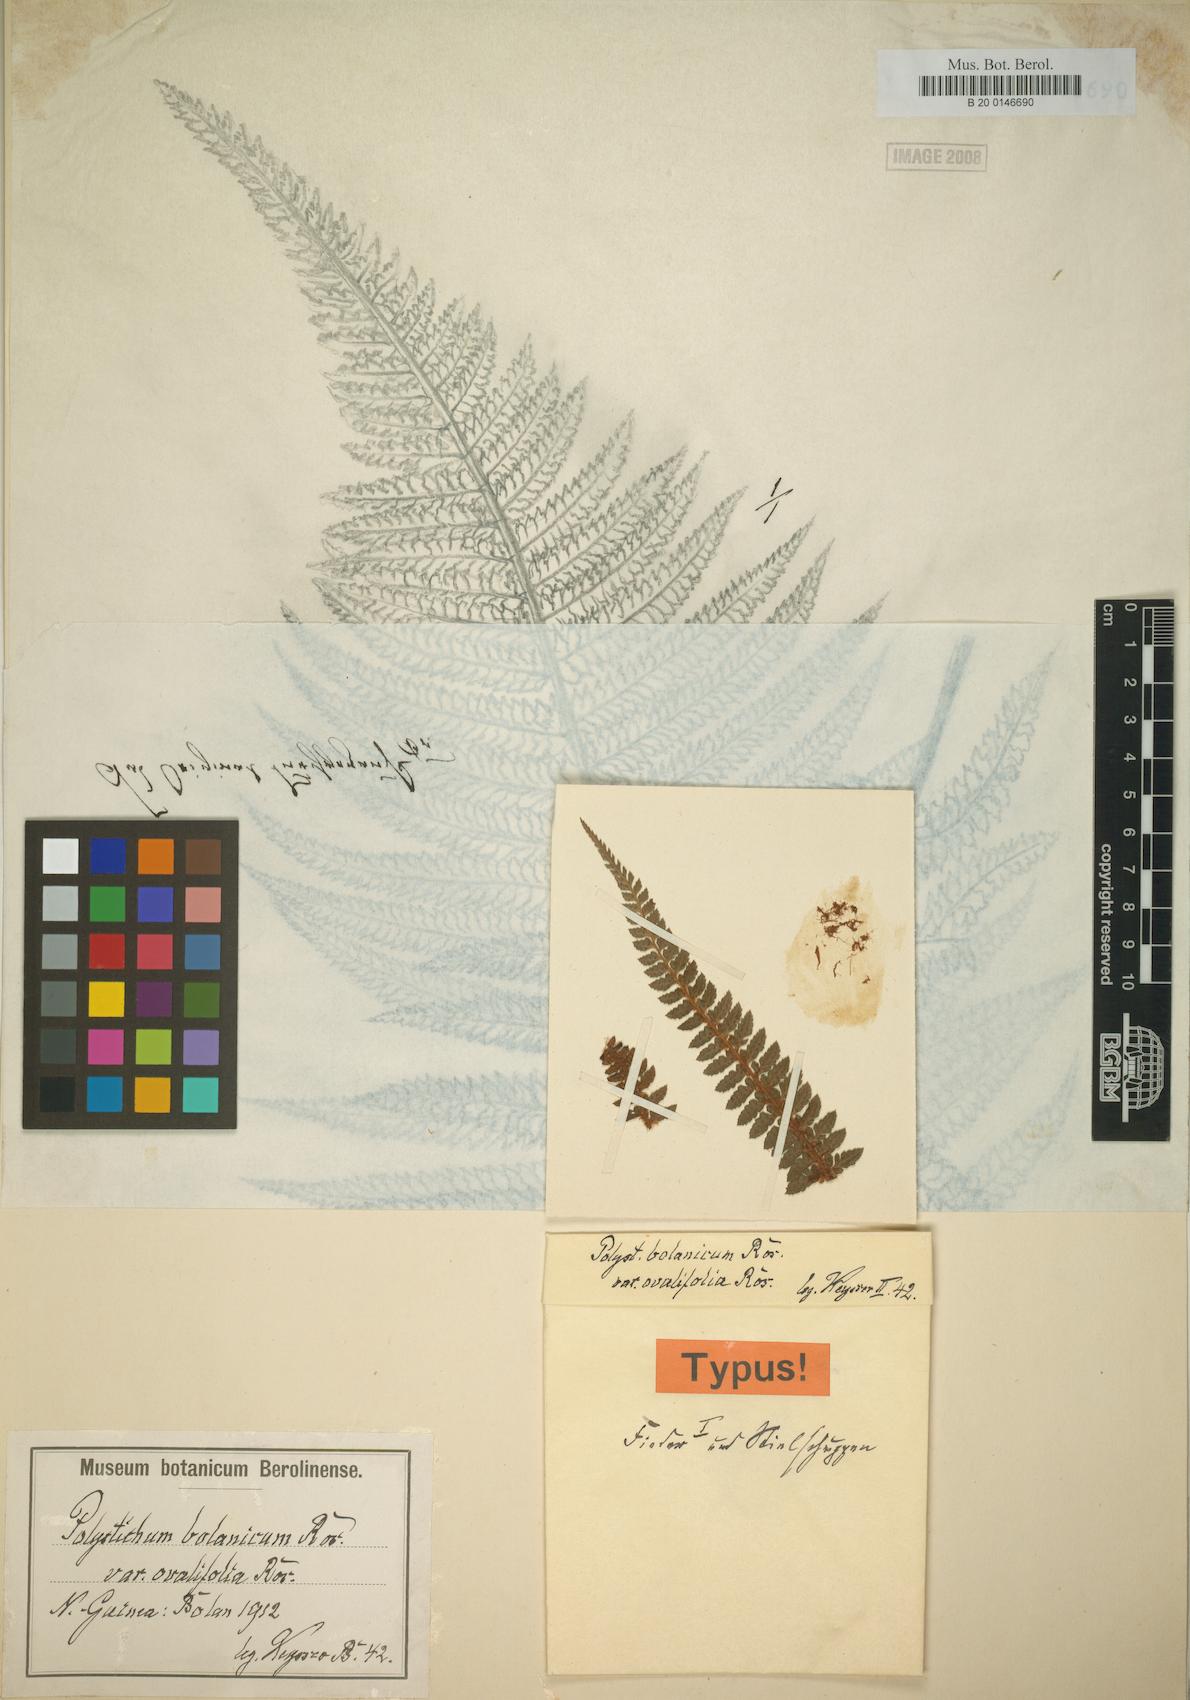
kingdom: Plantae
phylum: Tracheophyta
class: Polypodiopsida
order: Polypodiales
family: Dryopteridaceae
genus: Polystichum
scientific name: Polystichum bolanicum
